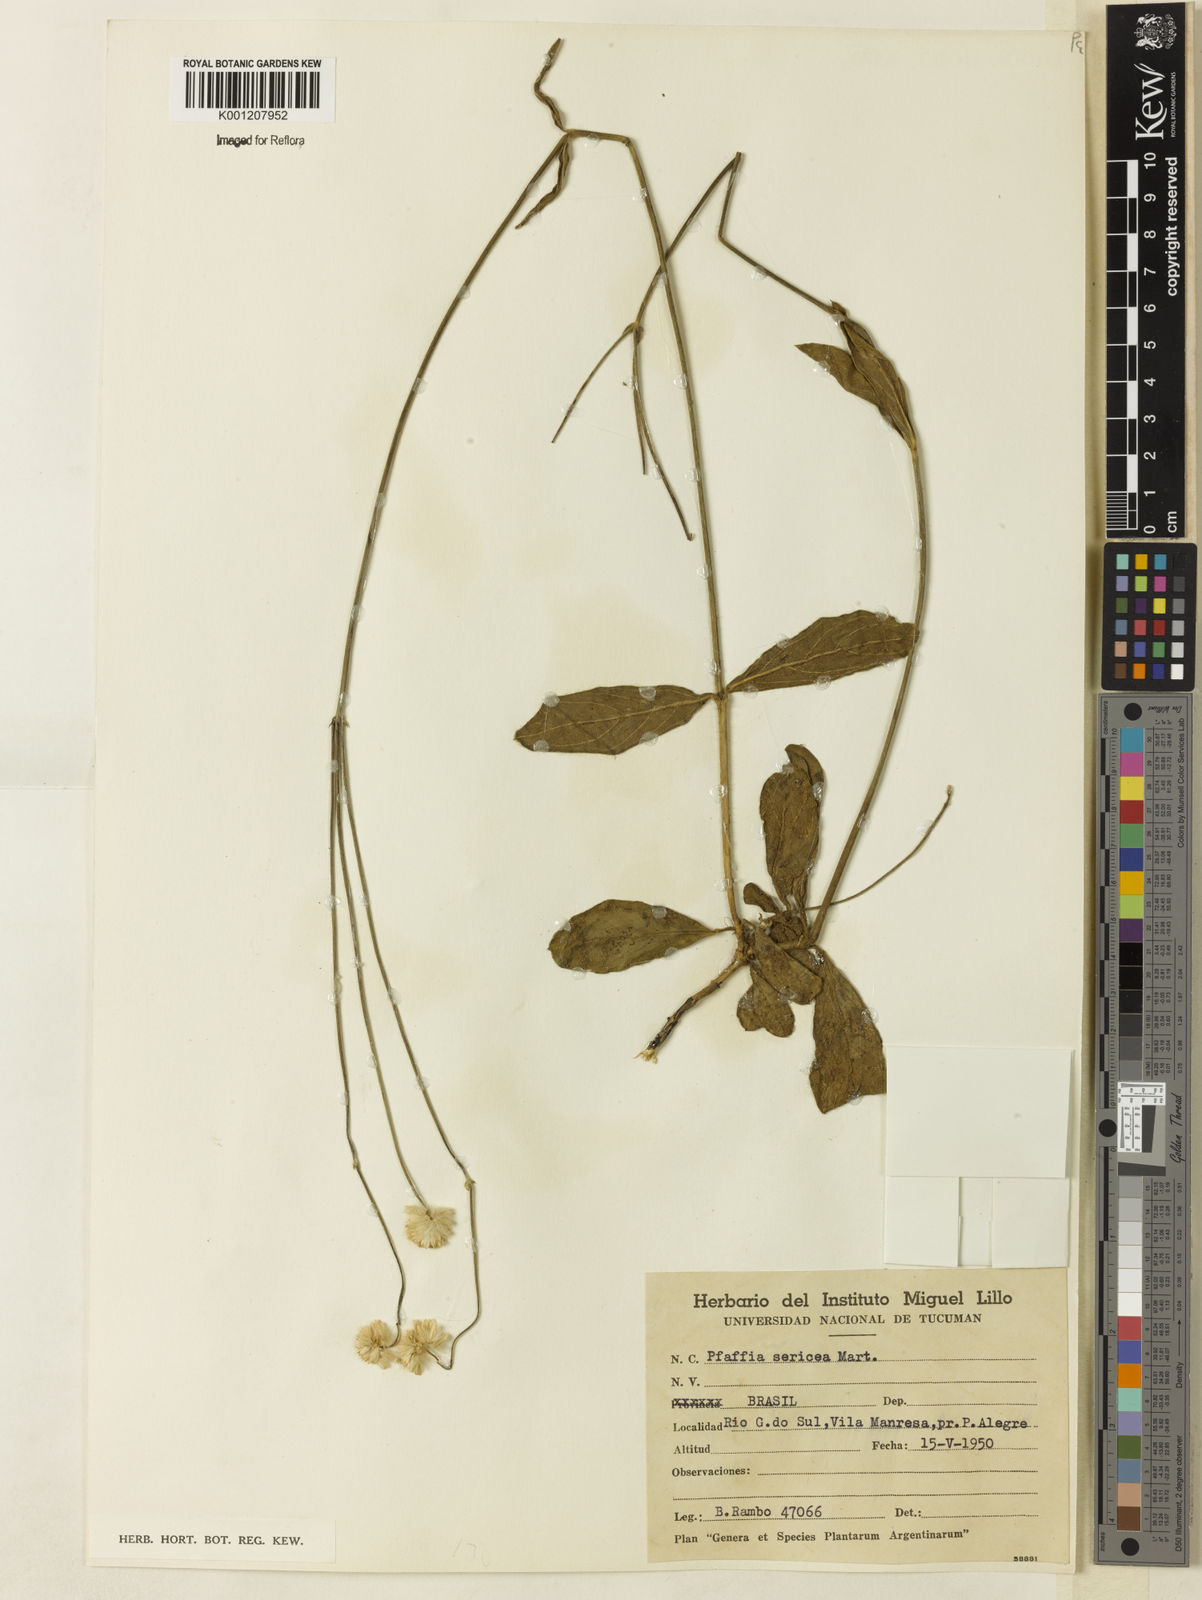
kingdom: Plantae
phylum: Tracheophyta
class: Magnoliopsida
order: Caryophyllales
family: Amaranthaceae
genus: Pfaffia
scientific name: Pfaffia
